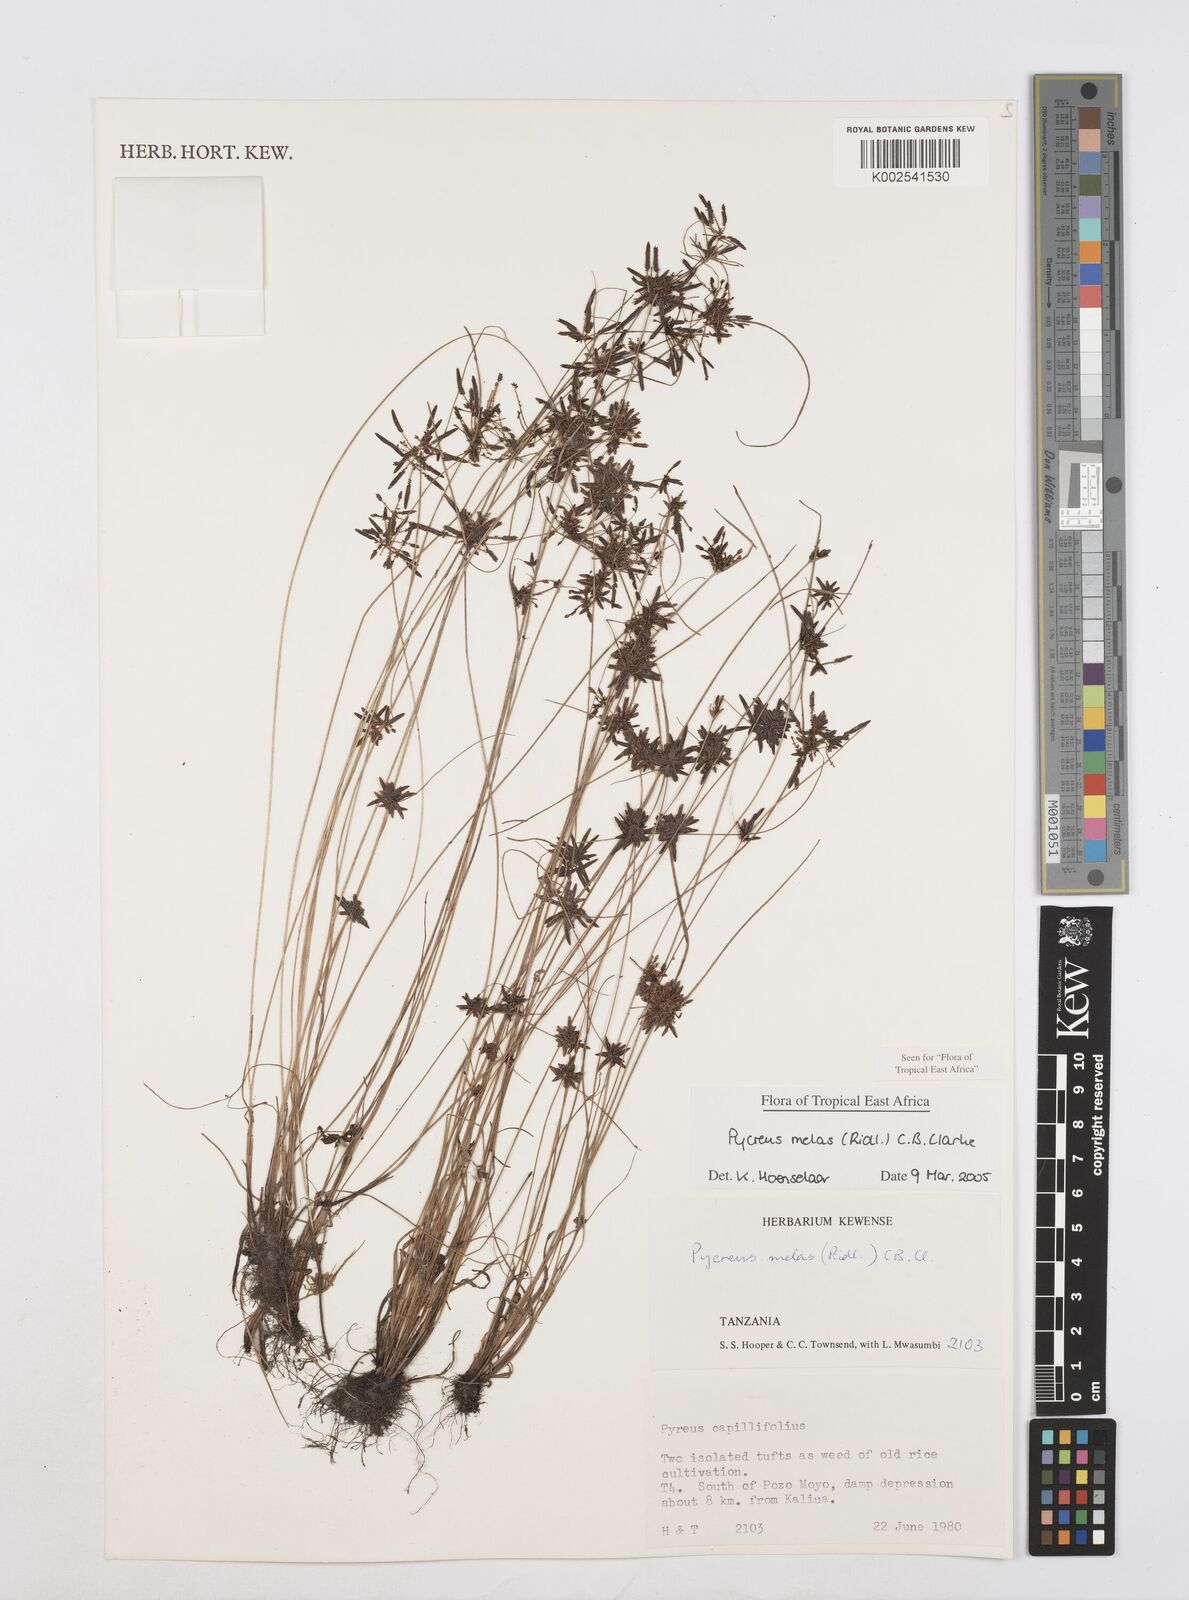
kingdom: Plantae
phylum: Tracheophyta
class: Liliopsida
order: Poales
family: Cyperaceae
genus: Cyperus
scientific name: Cyperus melas
